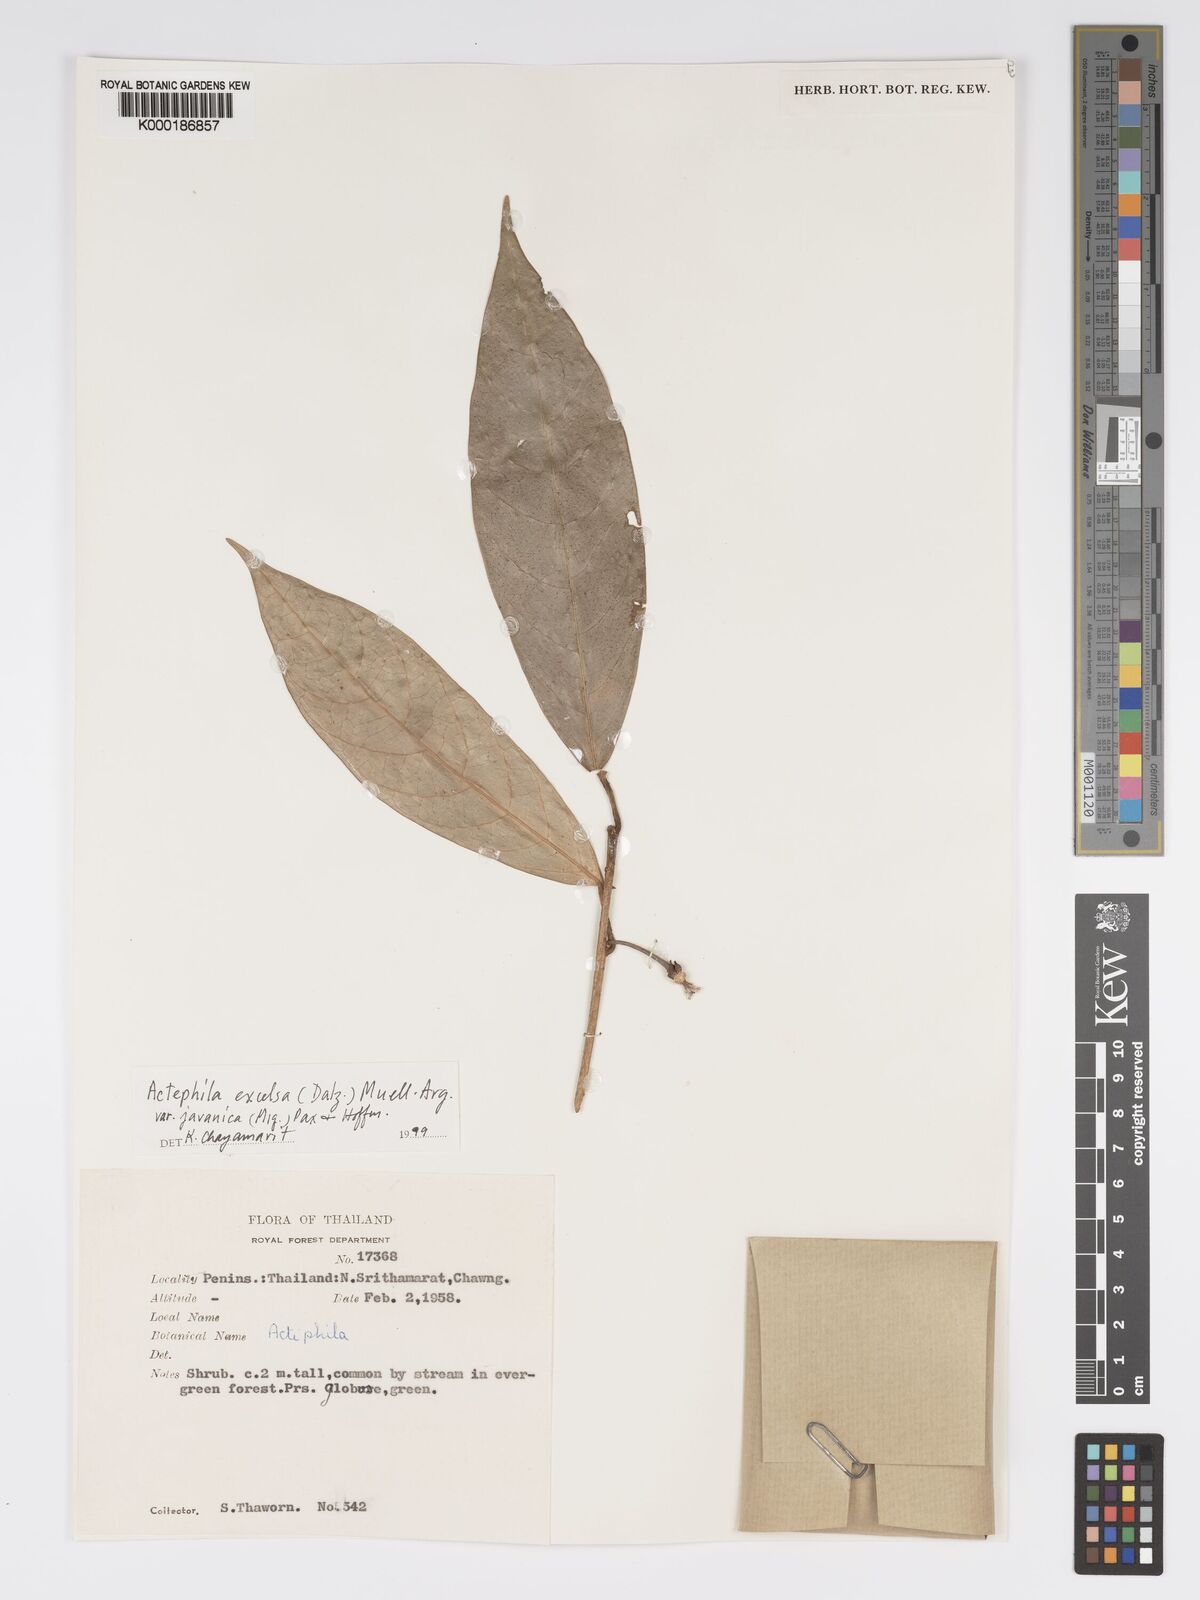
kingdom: Plantae
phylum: Tracheophyta
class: Magnoliopsida
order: Malpighiales
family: Phyllanthaceae
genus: Actephila
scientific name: Actephila
